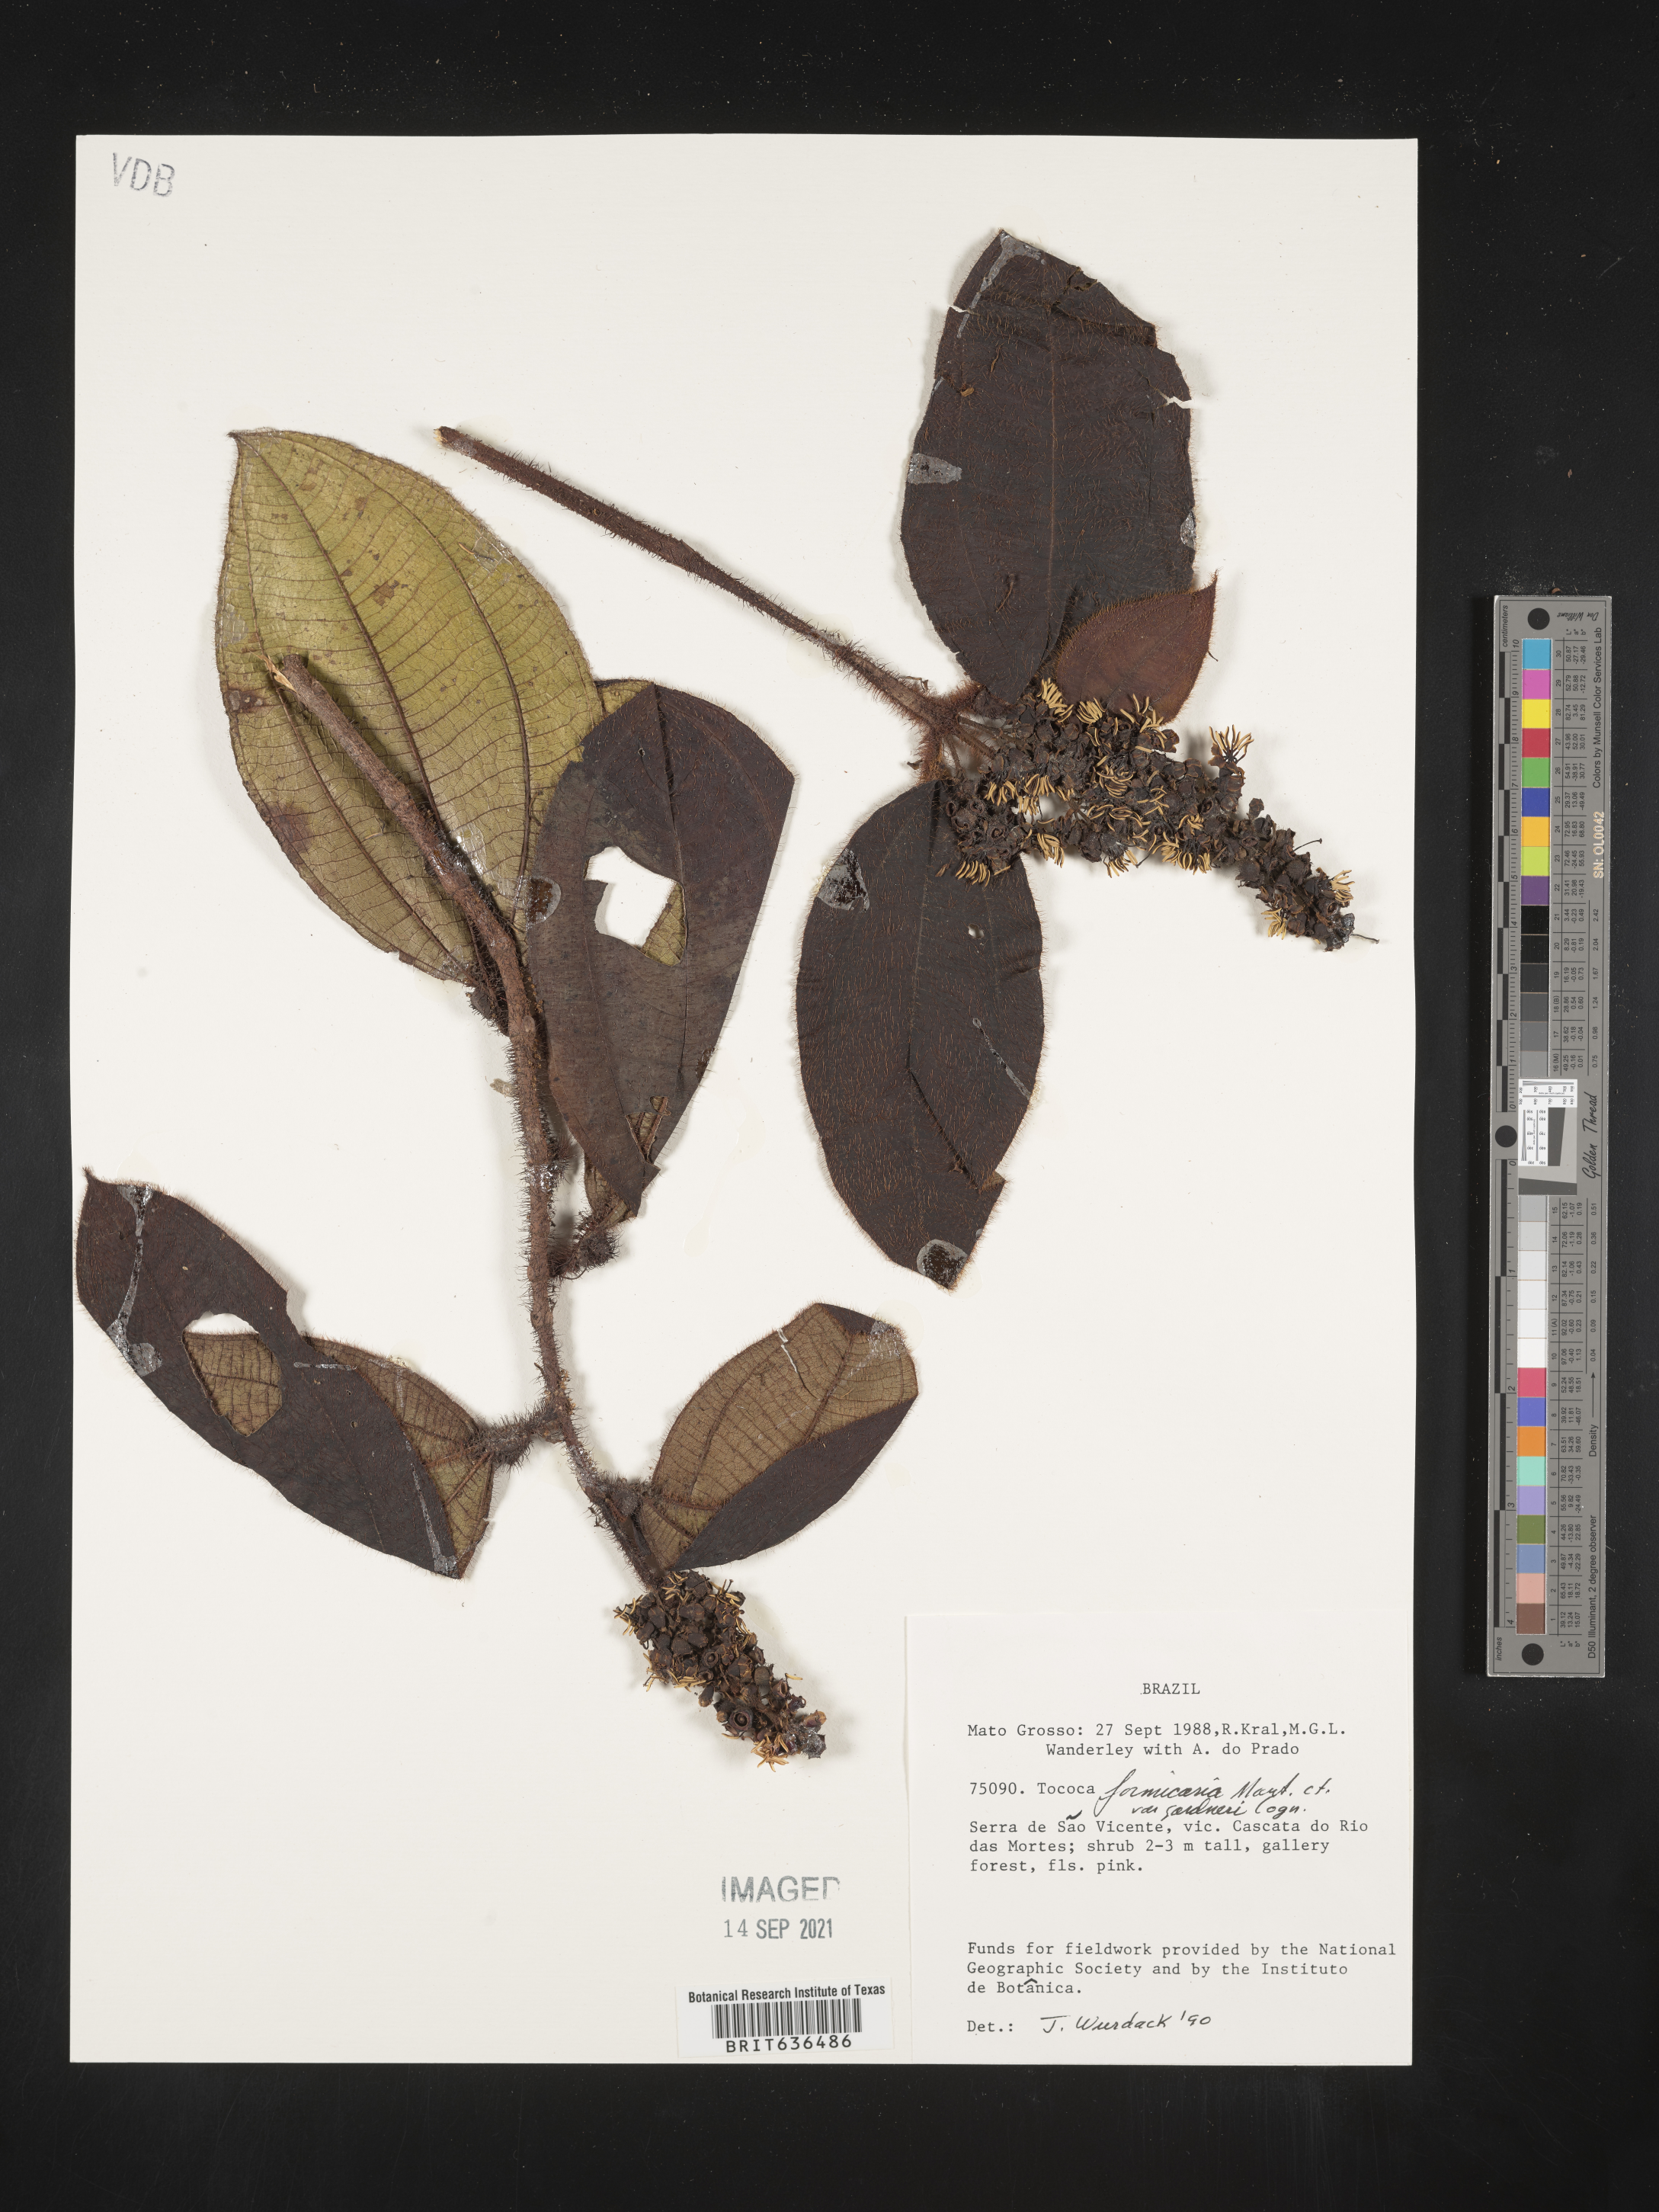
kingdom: Plantae
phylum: Tracheophyta
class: Magnoliopsida
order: Myrtales
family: Melastomataceae
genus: Tibouchina
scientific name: Tibouchina
